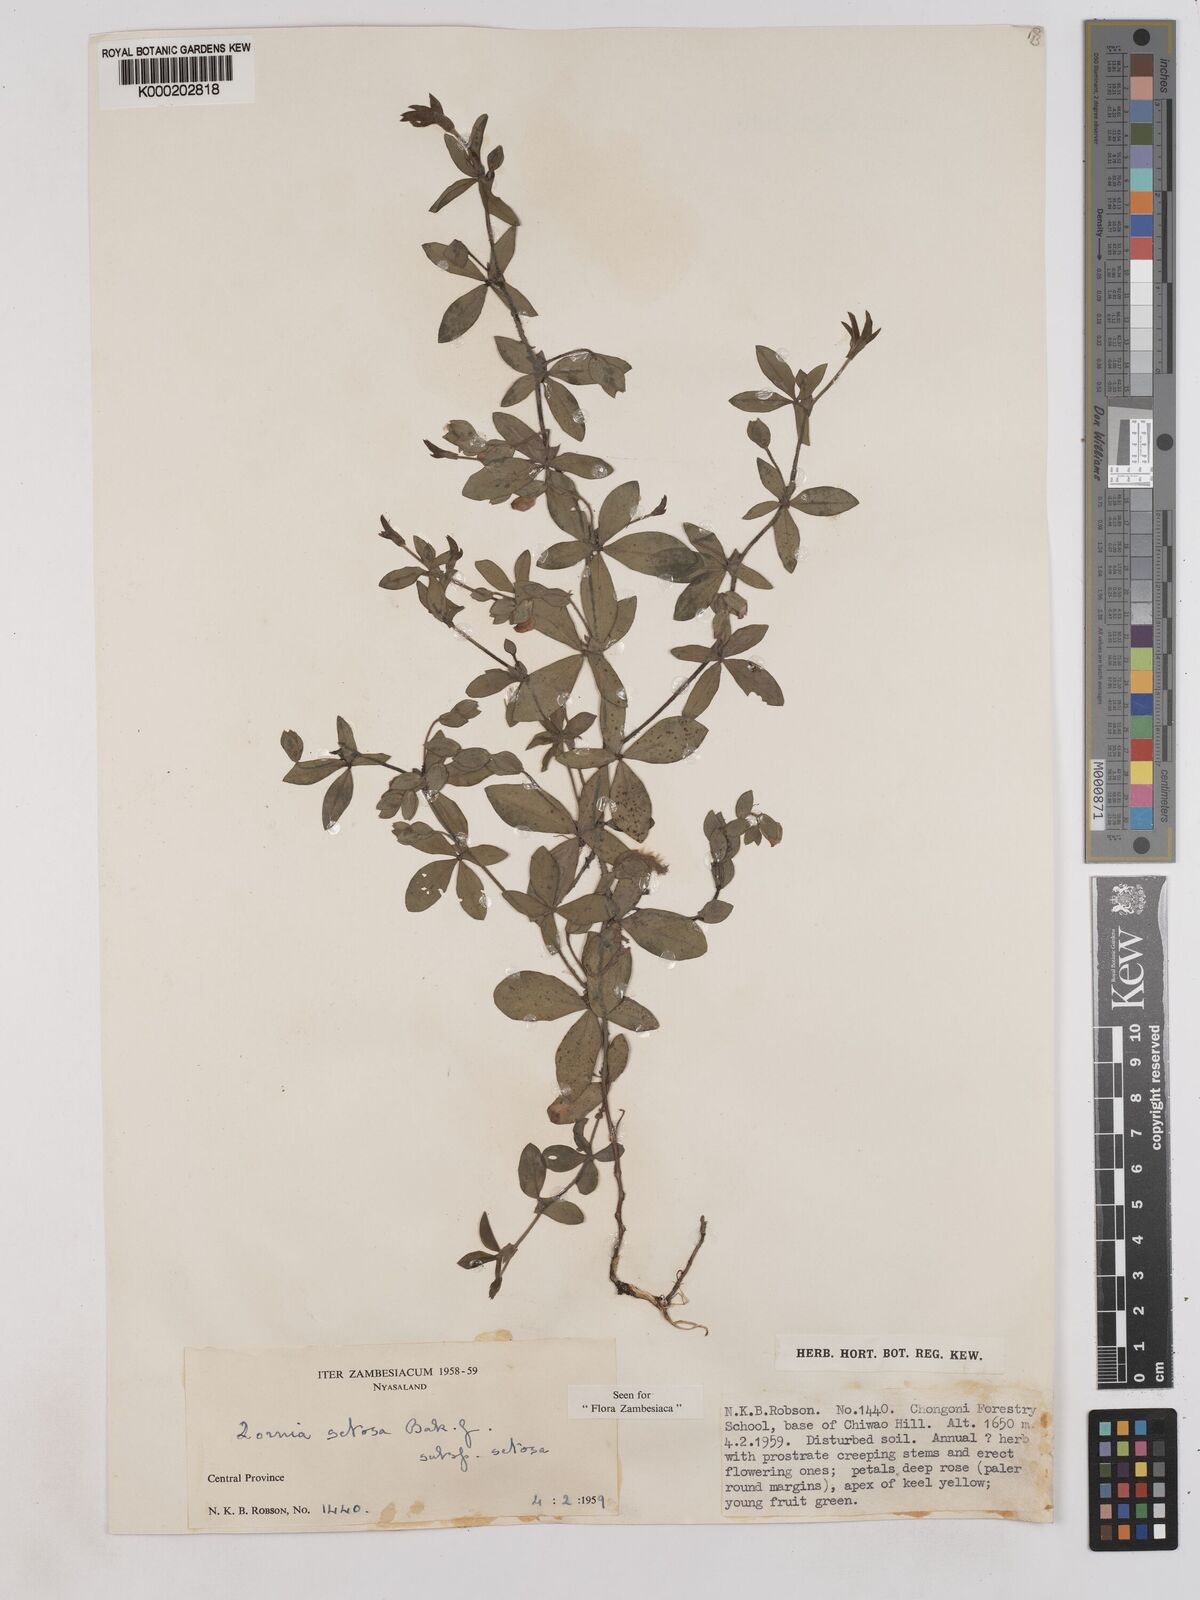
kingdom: Plantae
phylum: Tracheophyta
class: Magnoliopsida
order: Fabales
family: Fabaceae
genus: Zornia
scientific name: Zornia setosa
